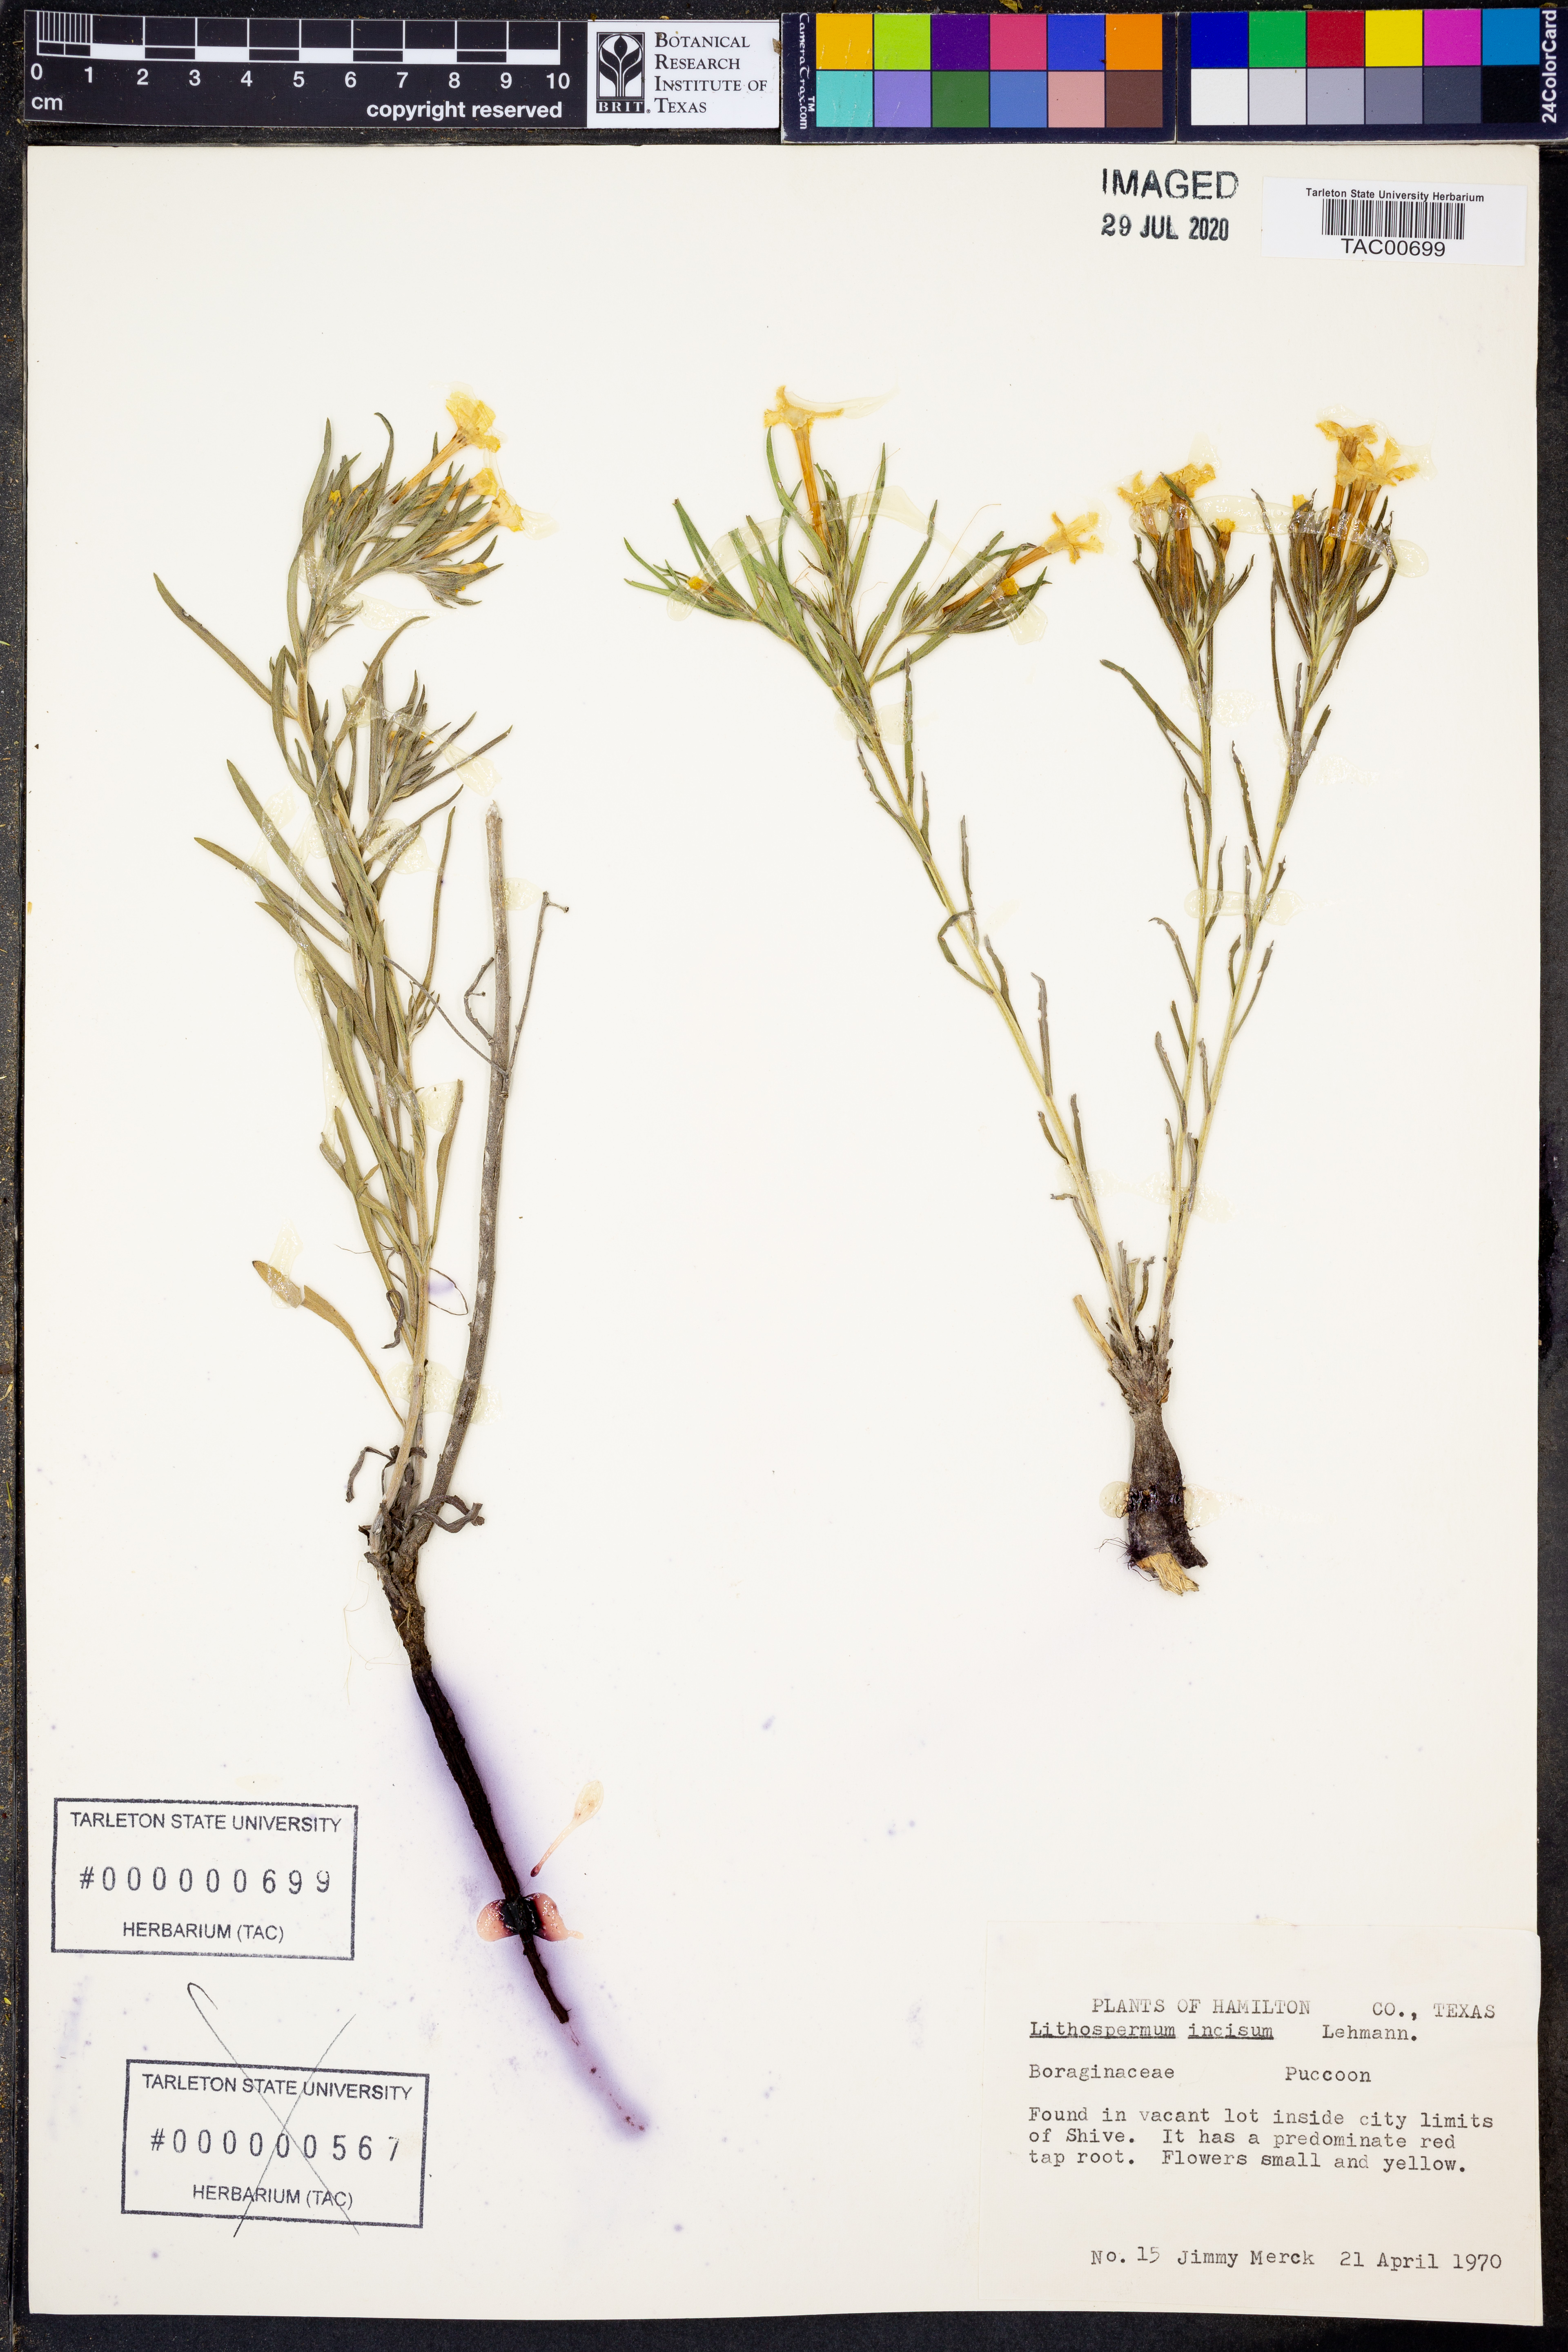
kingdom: Plantae
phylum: Tracheophyta
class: Magnoliopsida
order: Boraginales
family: Boraginaceae
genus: Lithospermum
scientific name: Lithospermum incisum
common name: Fringed gromwell
